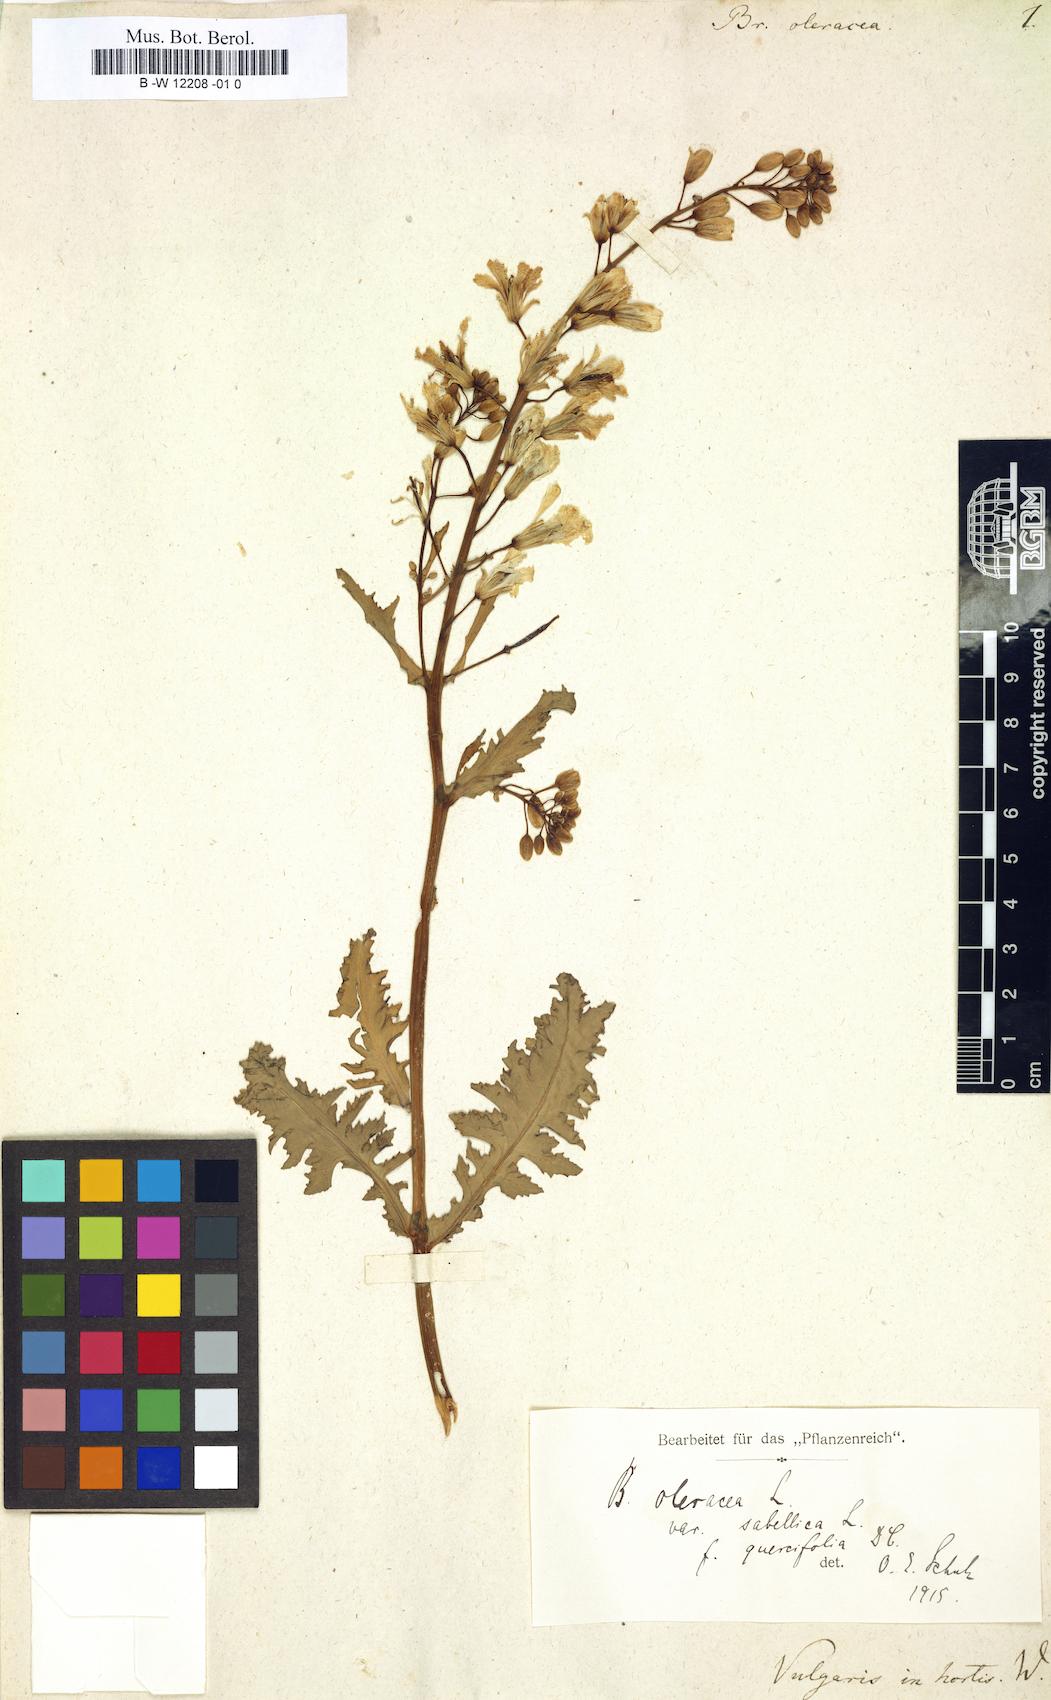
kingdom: Plantae
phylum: Tracheophyta
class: Magnoliopsida
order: Brassicales
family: Brassicaceae
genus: Brassica
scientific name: Brassica oleracea
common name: Cabbage
